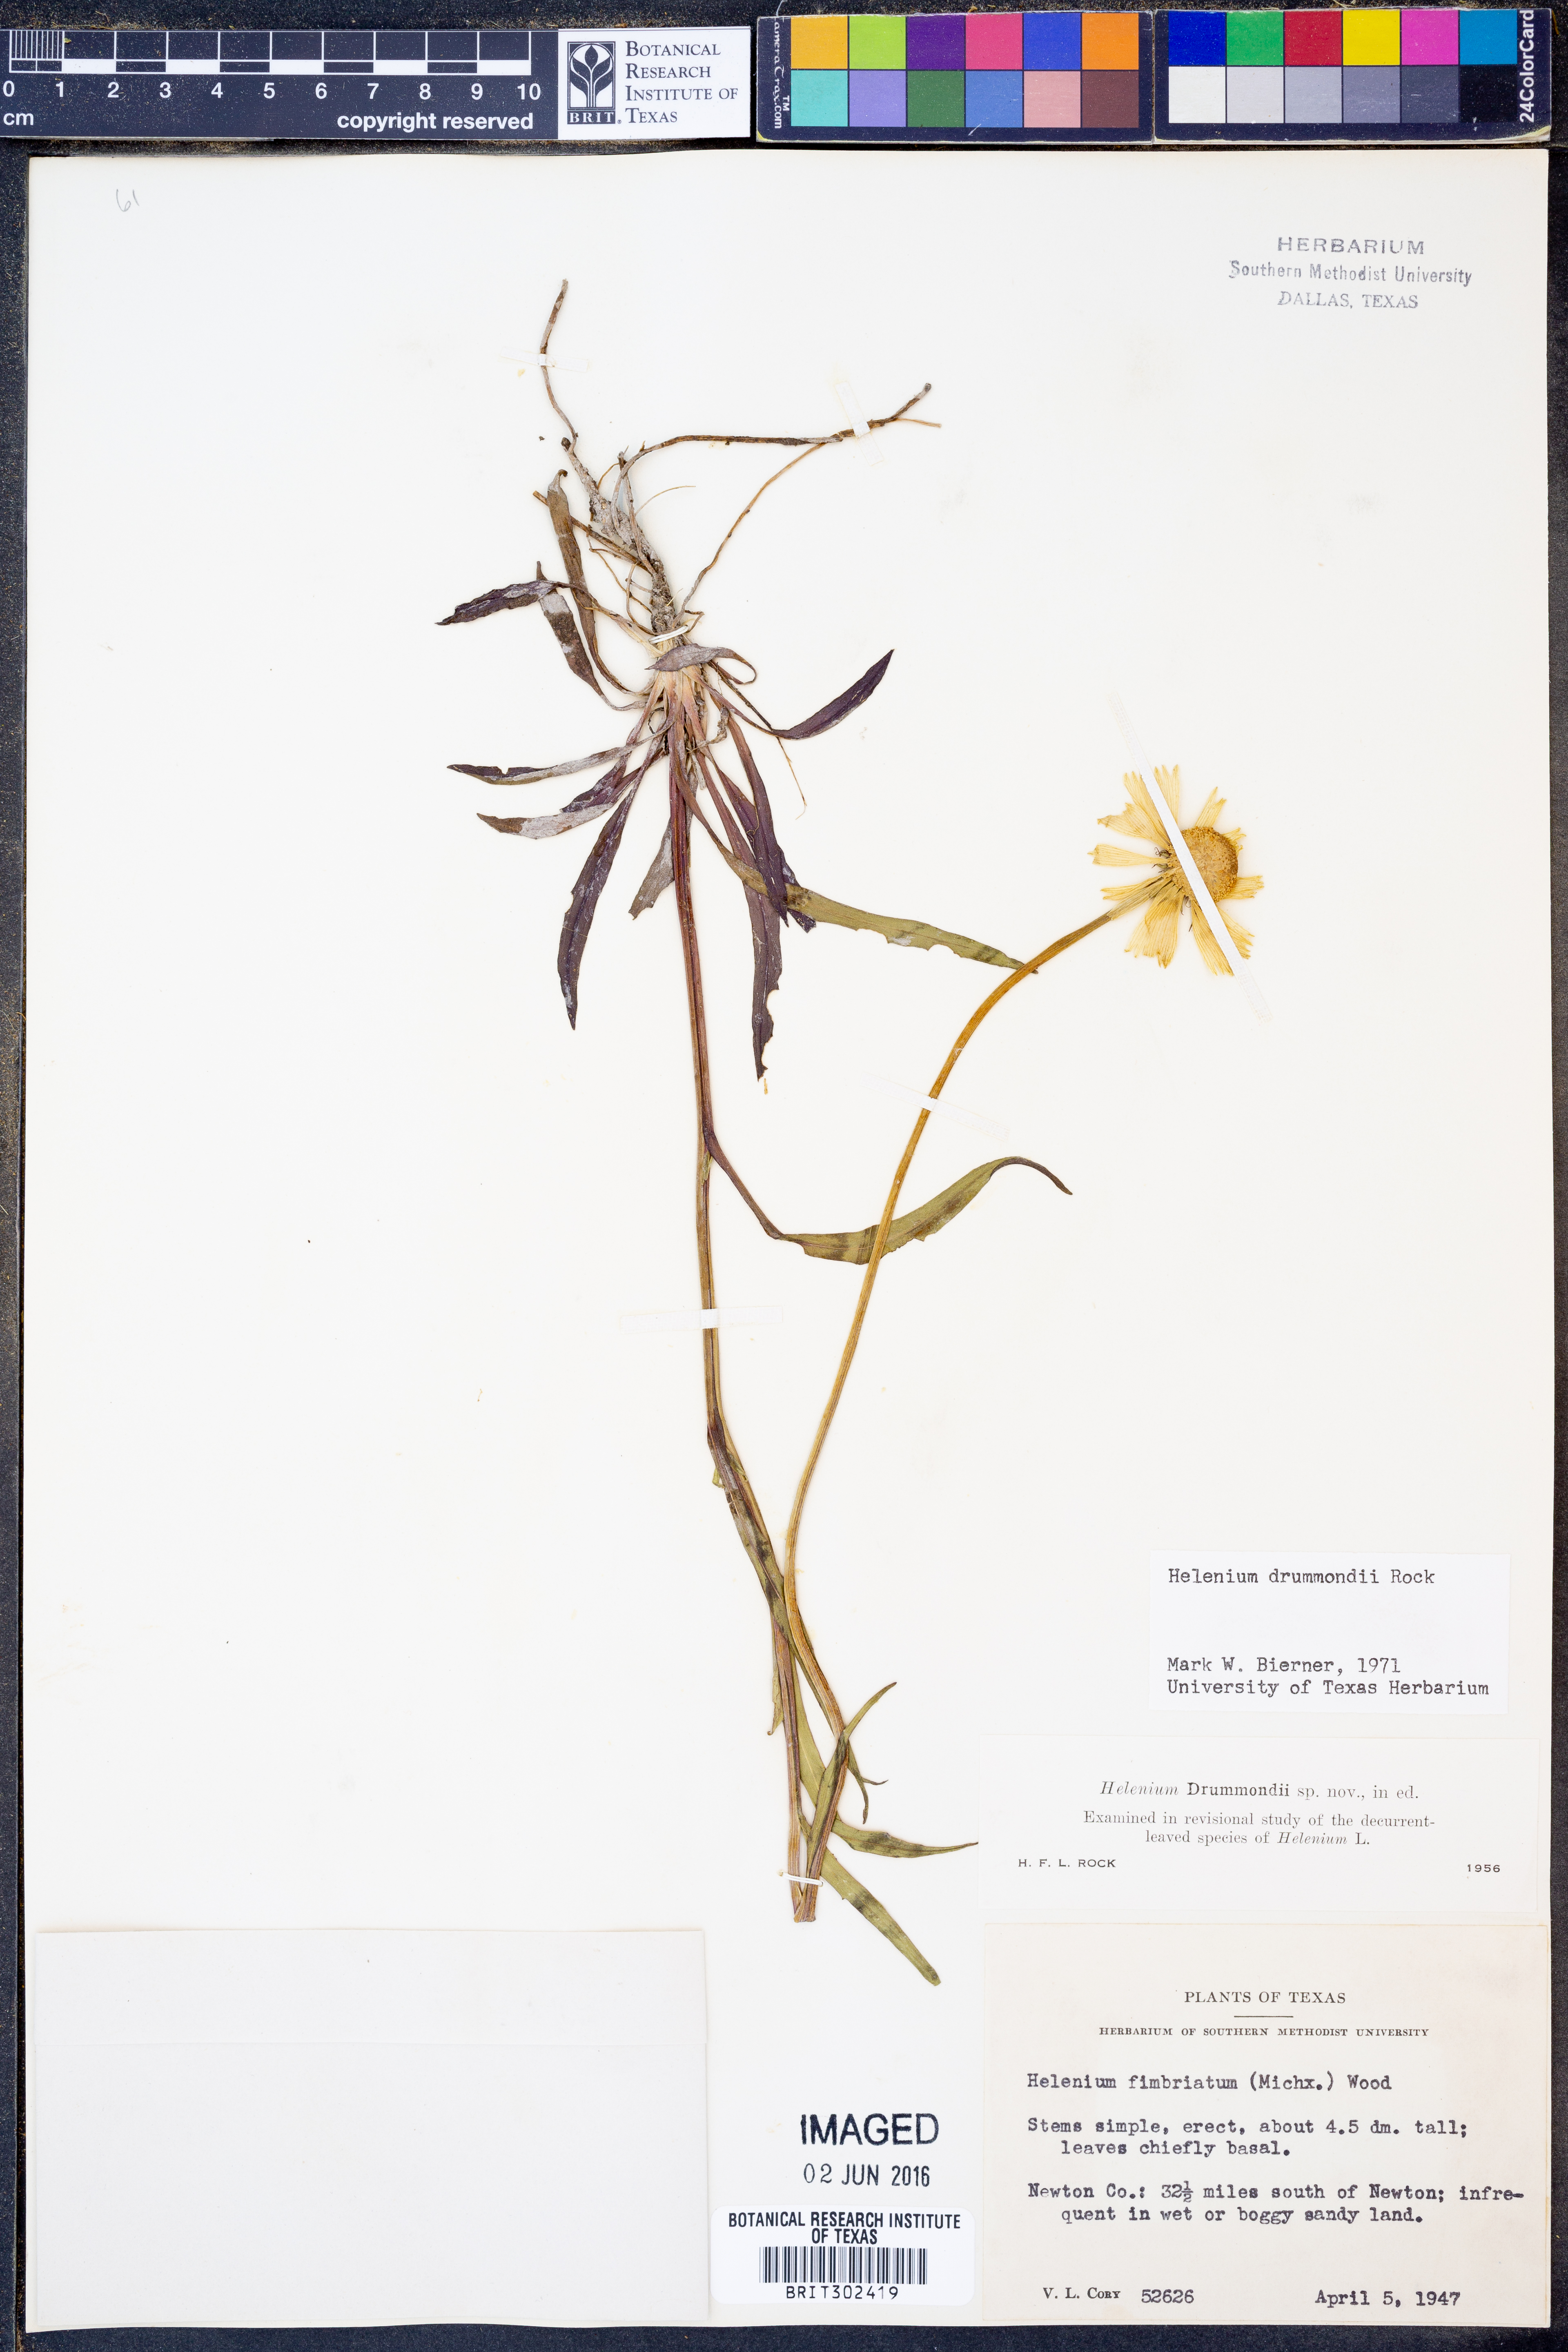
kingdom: Plantae
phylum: Tracheophyta
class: Magnoliopsida
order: Asterales
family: Asteraceae
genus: Helenium
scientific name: Helenium drummondii
